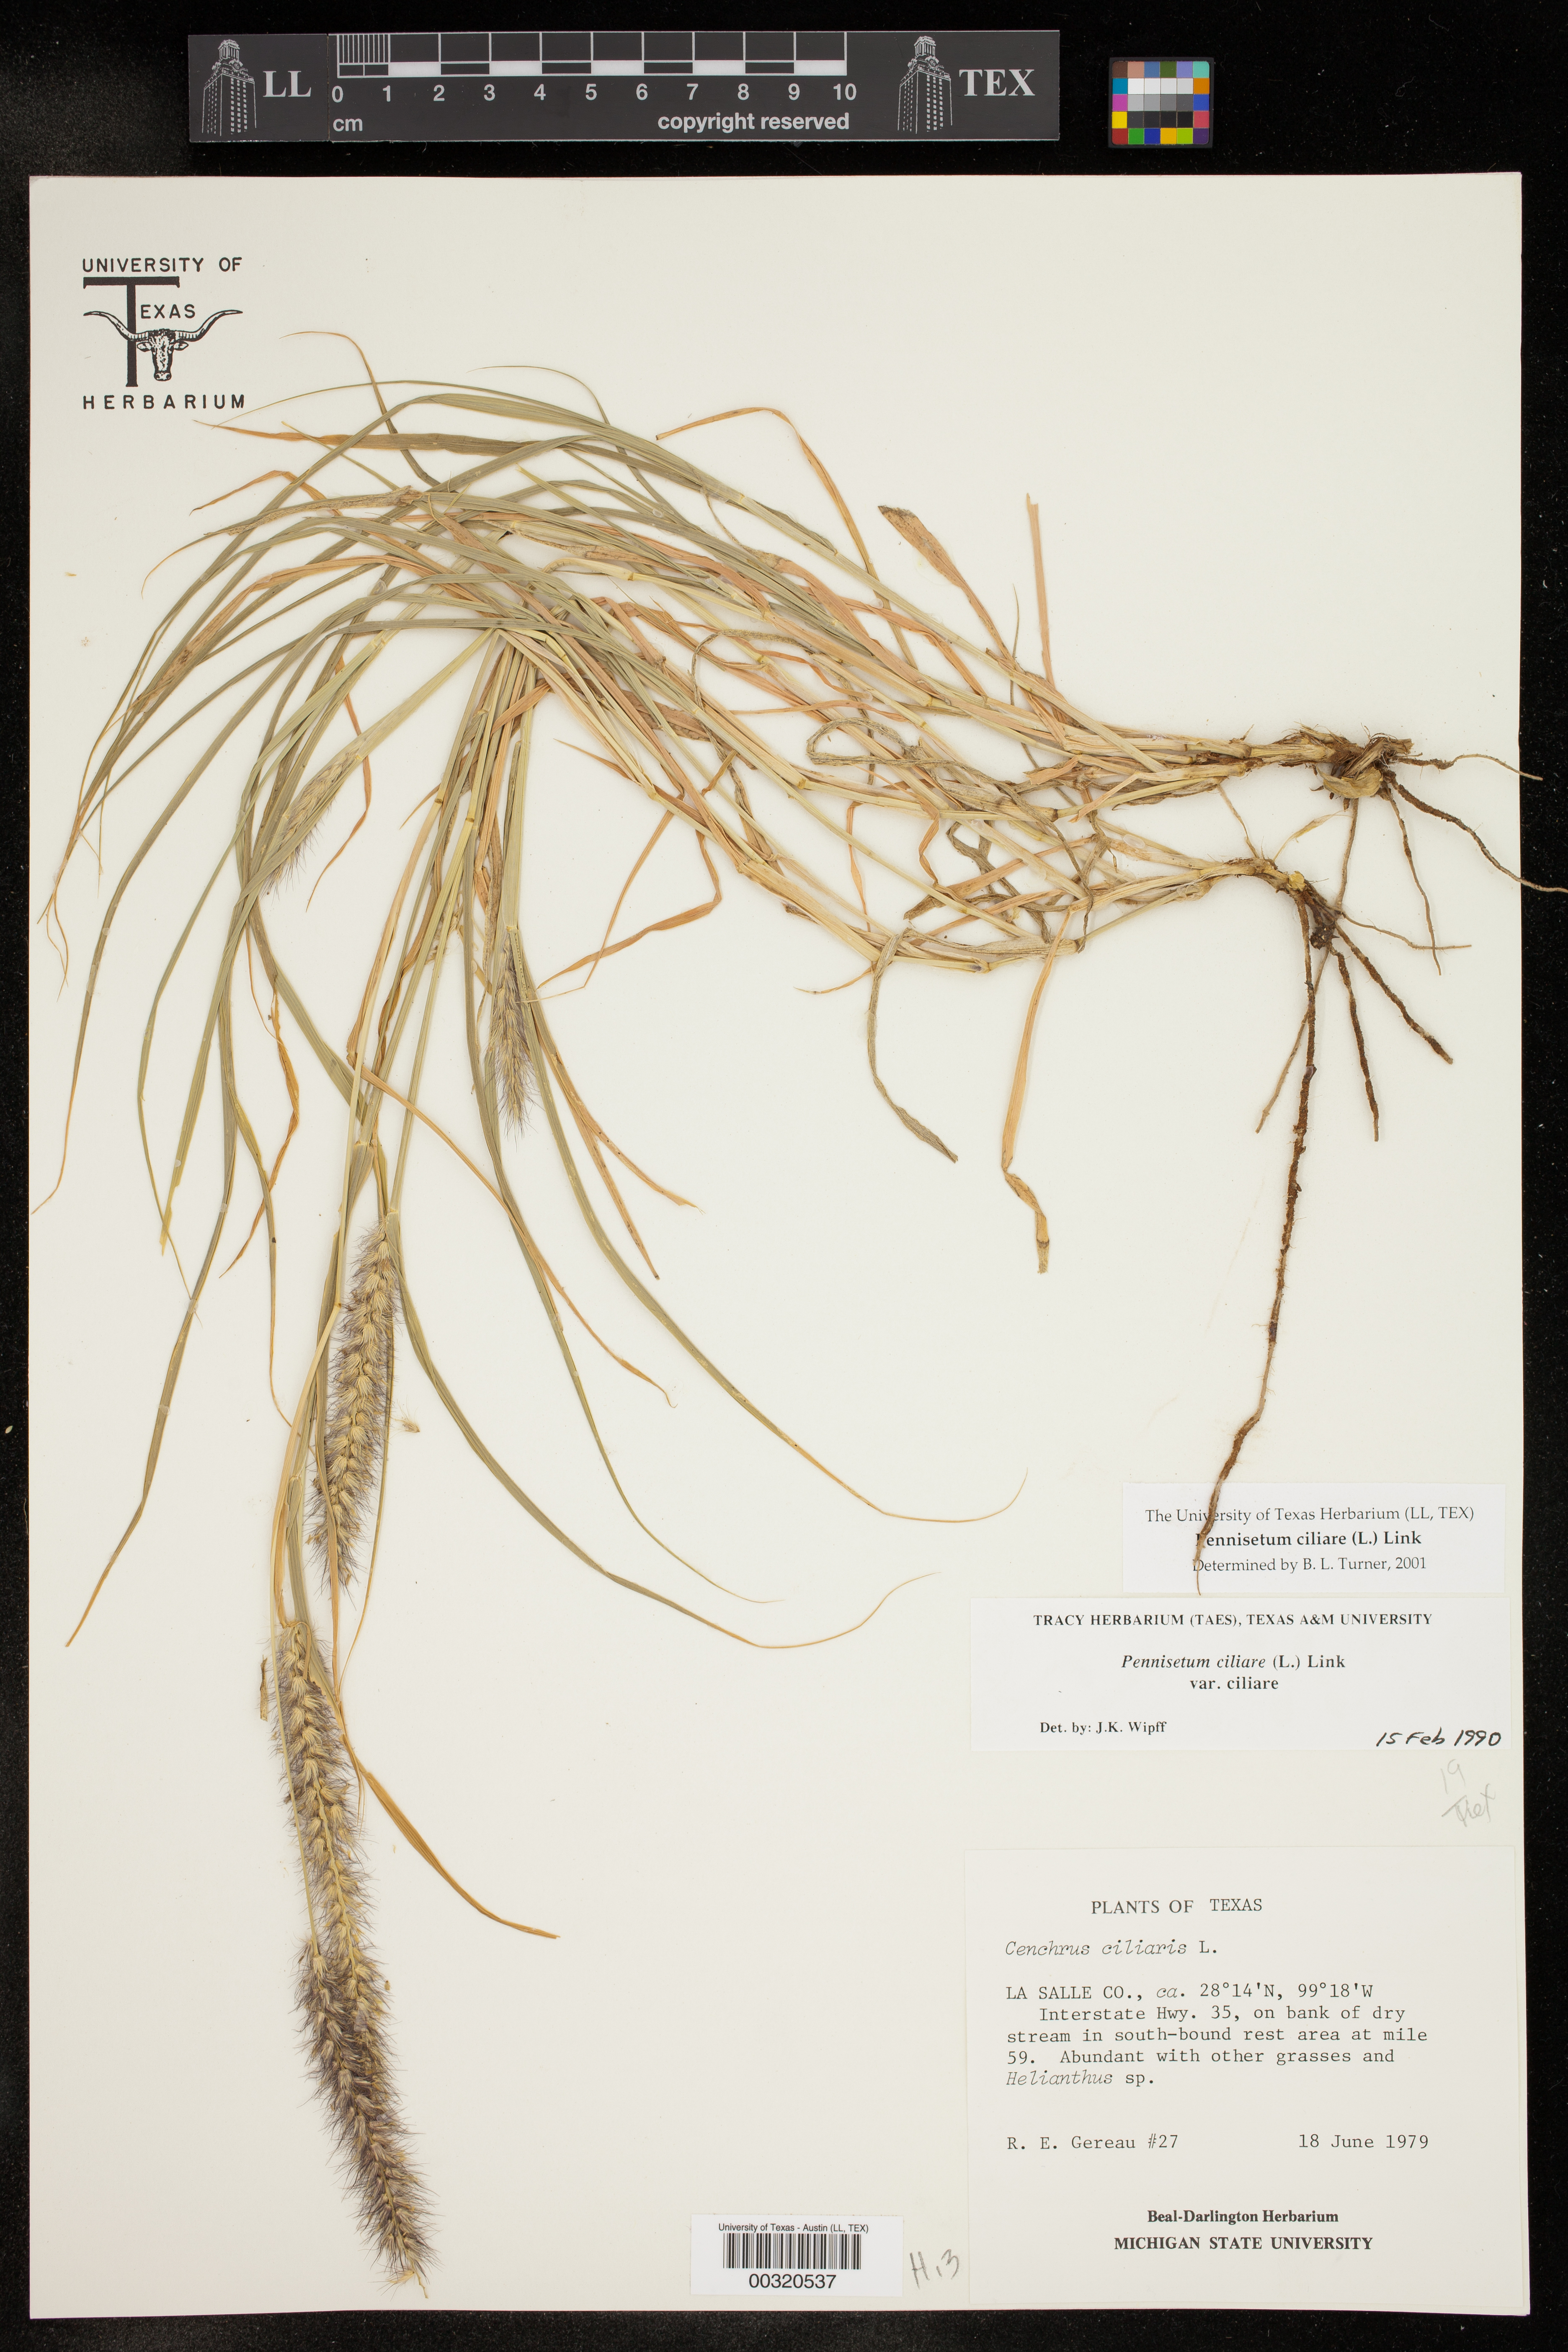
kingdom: Plantae
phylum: Tracheophyta
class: Liliopsida
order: Poales
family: Poaceae
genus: Cenchrus
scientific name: Cenchrus ciliaris
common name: Buffelgrass
